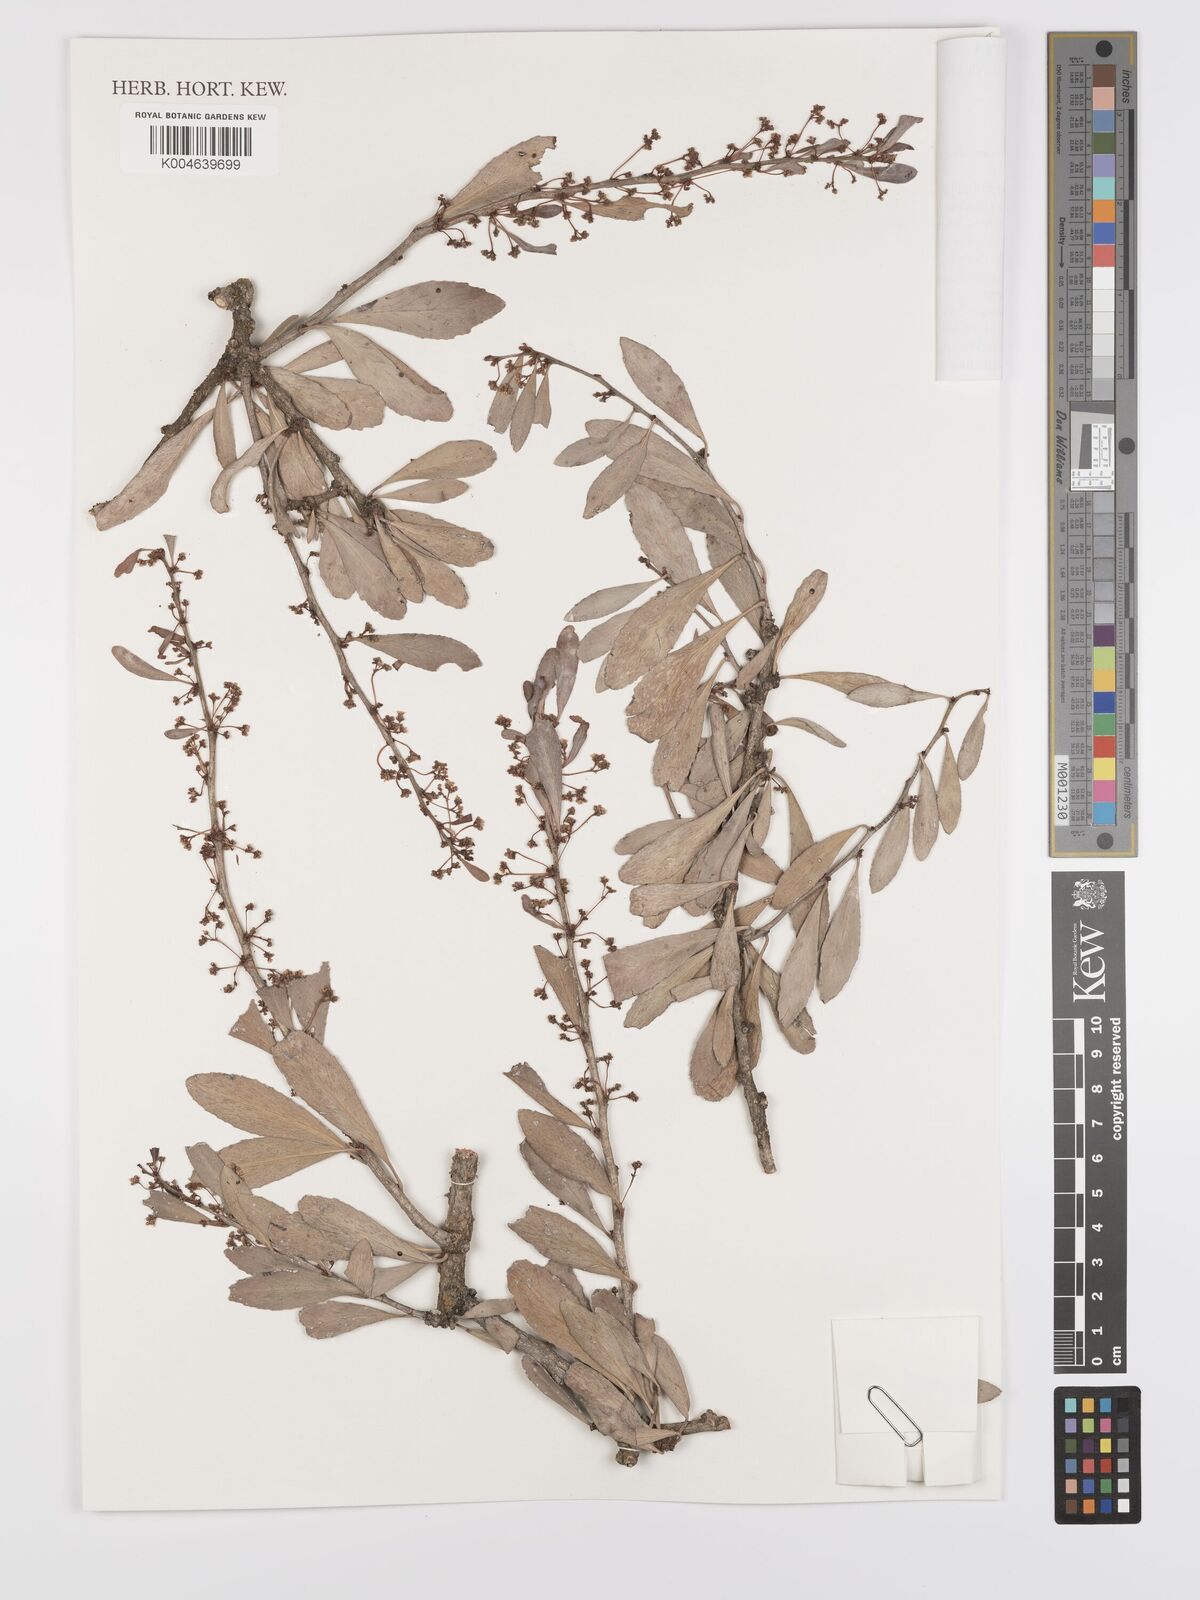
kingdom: Plantae
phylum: Tracheophyta
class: Magnoliopsida
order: Celastrales
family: Celastraceae
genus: Gymnosporia
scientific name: Gymnosporia heterophylla
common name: Angle-stem spikethorn
